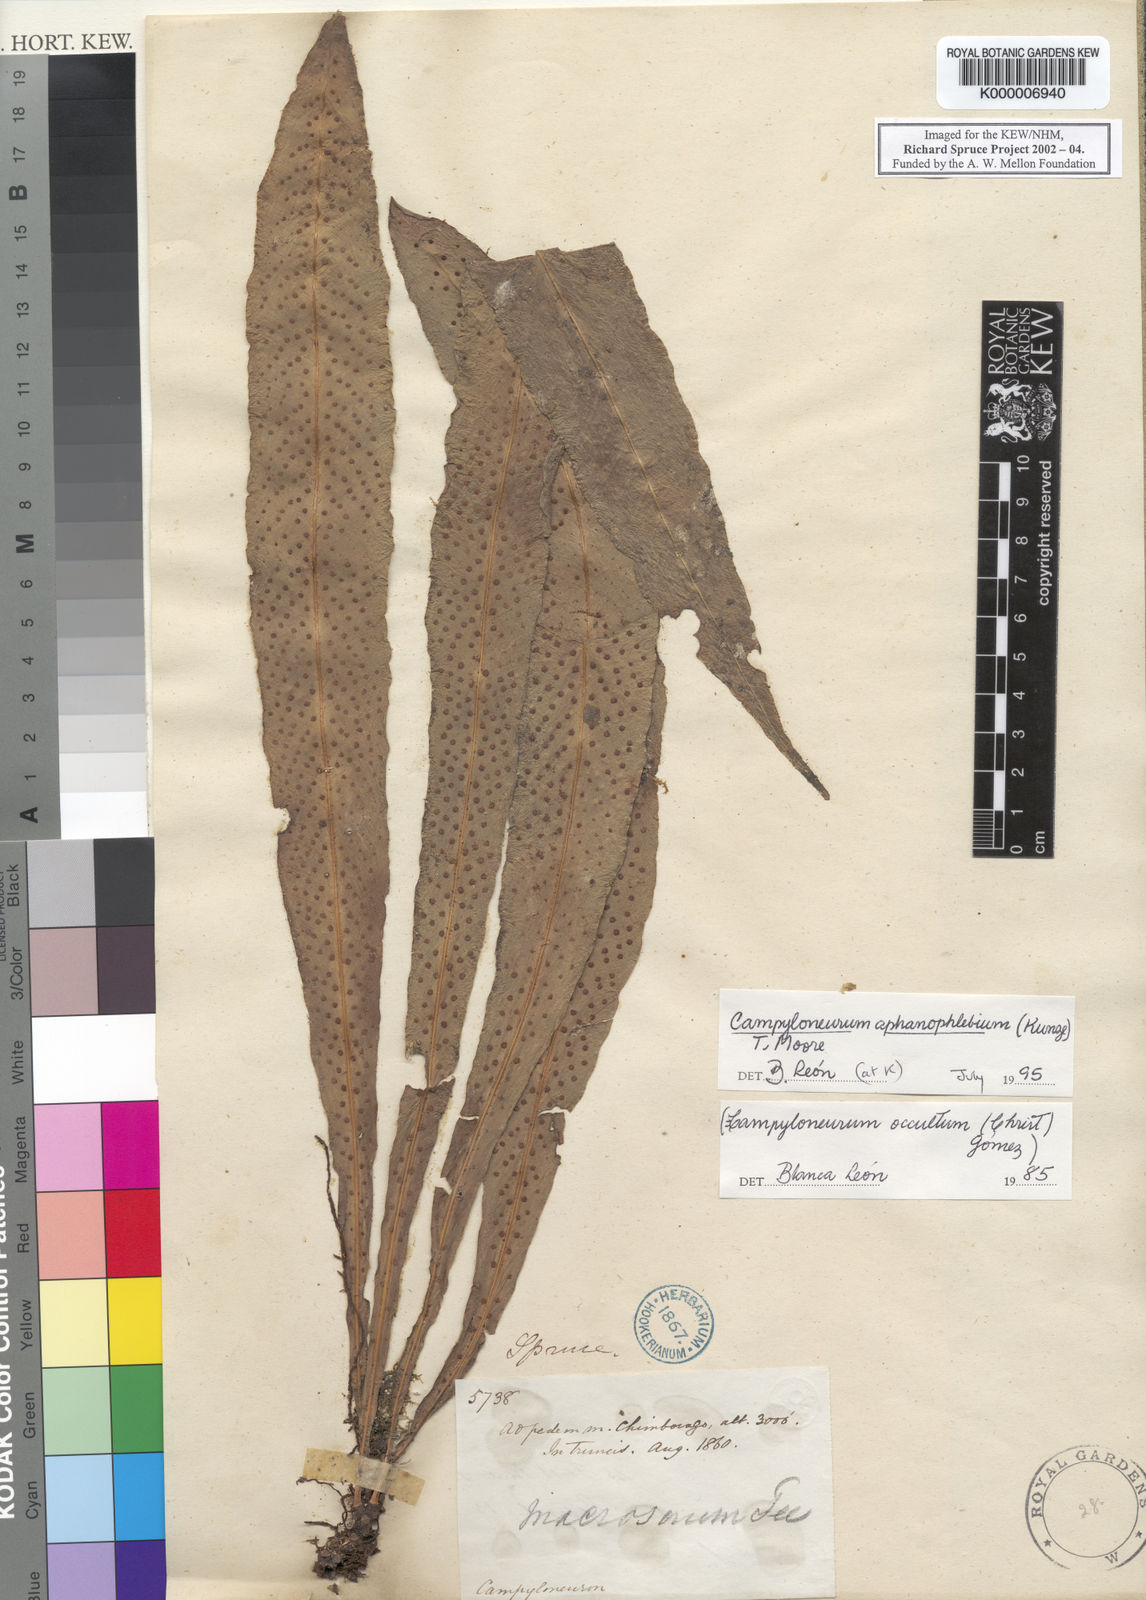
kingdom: Plantae
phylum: Tracheophyta
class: Polypodiopsida
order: Polypodiales
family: Polypodiaceae
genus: Campyloneurum
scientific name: Campyloneurum aphanophlebium
